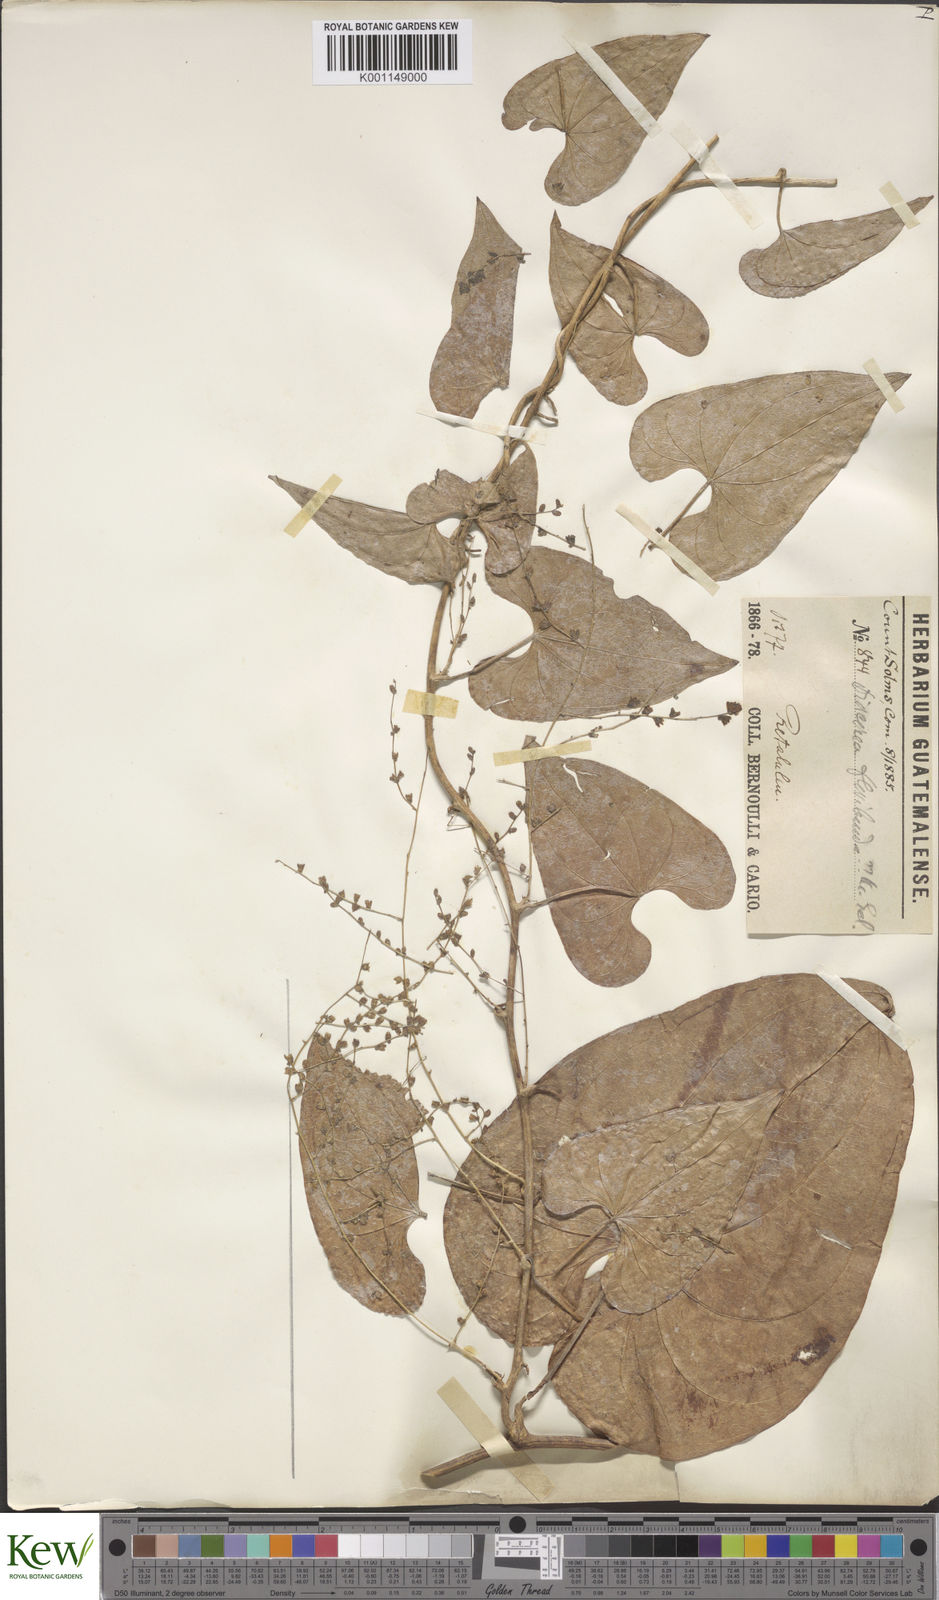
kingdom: Plantae
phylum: Tracheophyta
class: Liliopsida
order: Dioscoreales
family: Dioscoreaceae
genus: Dioscorea
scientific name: Dioscorea floribunda
